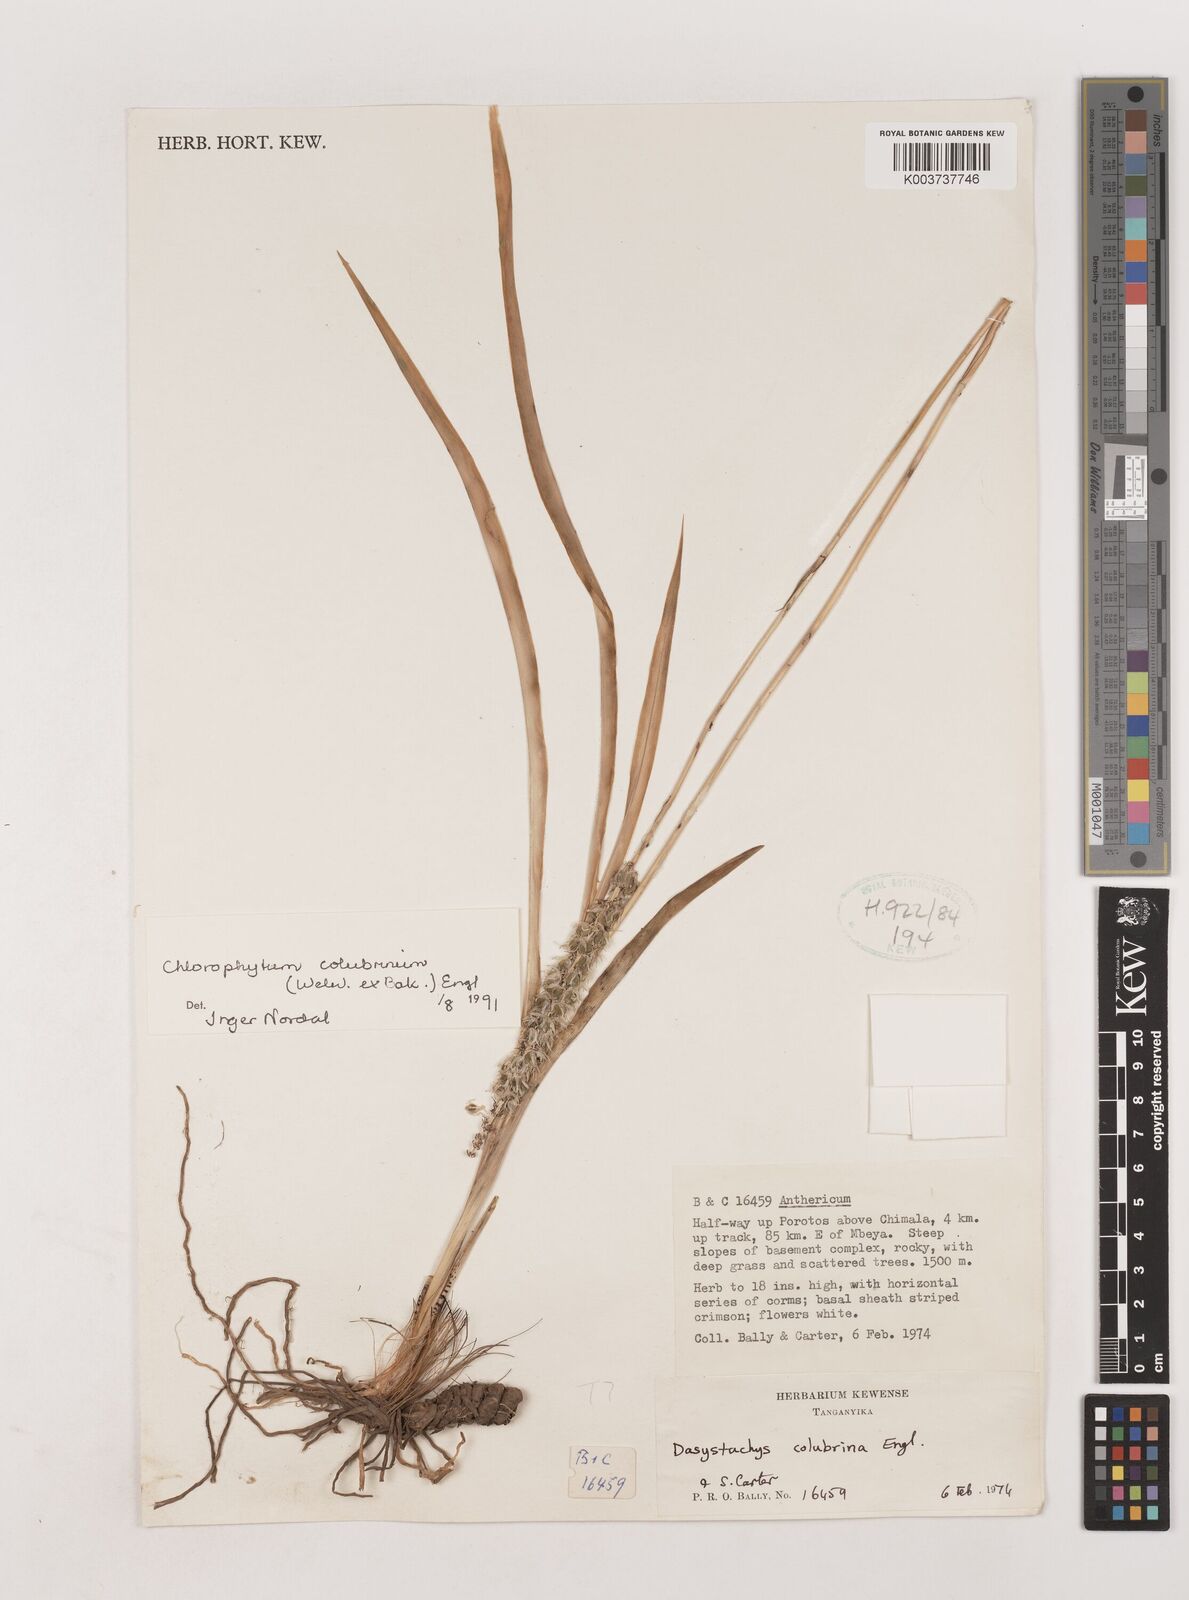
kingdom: Plantae
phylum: Tracheophyta
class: Liliopsida
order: Asparagales
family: Asparagaceae
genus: Chlorophytum
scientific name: Chlorophytum colubrinum
